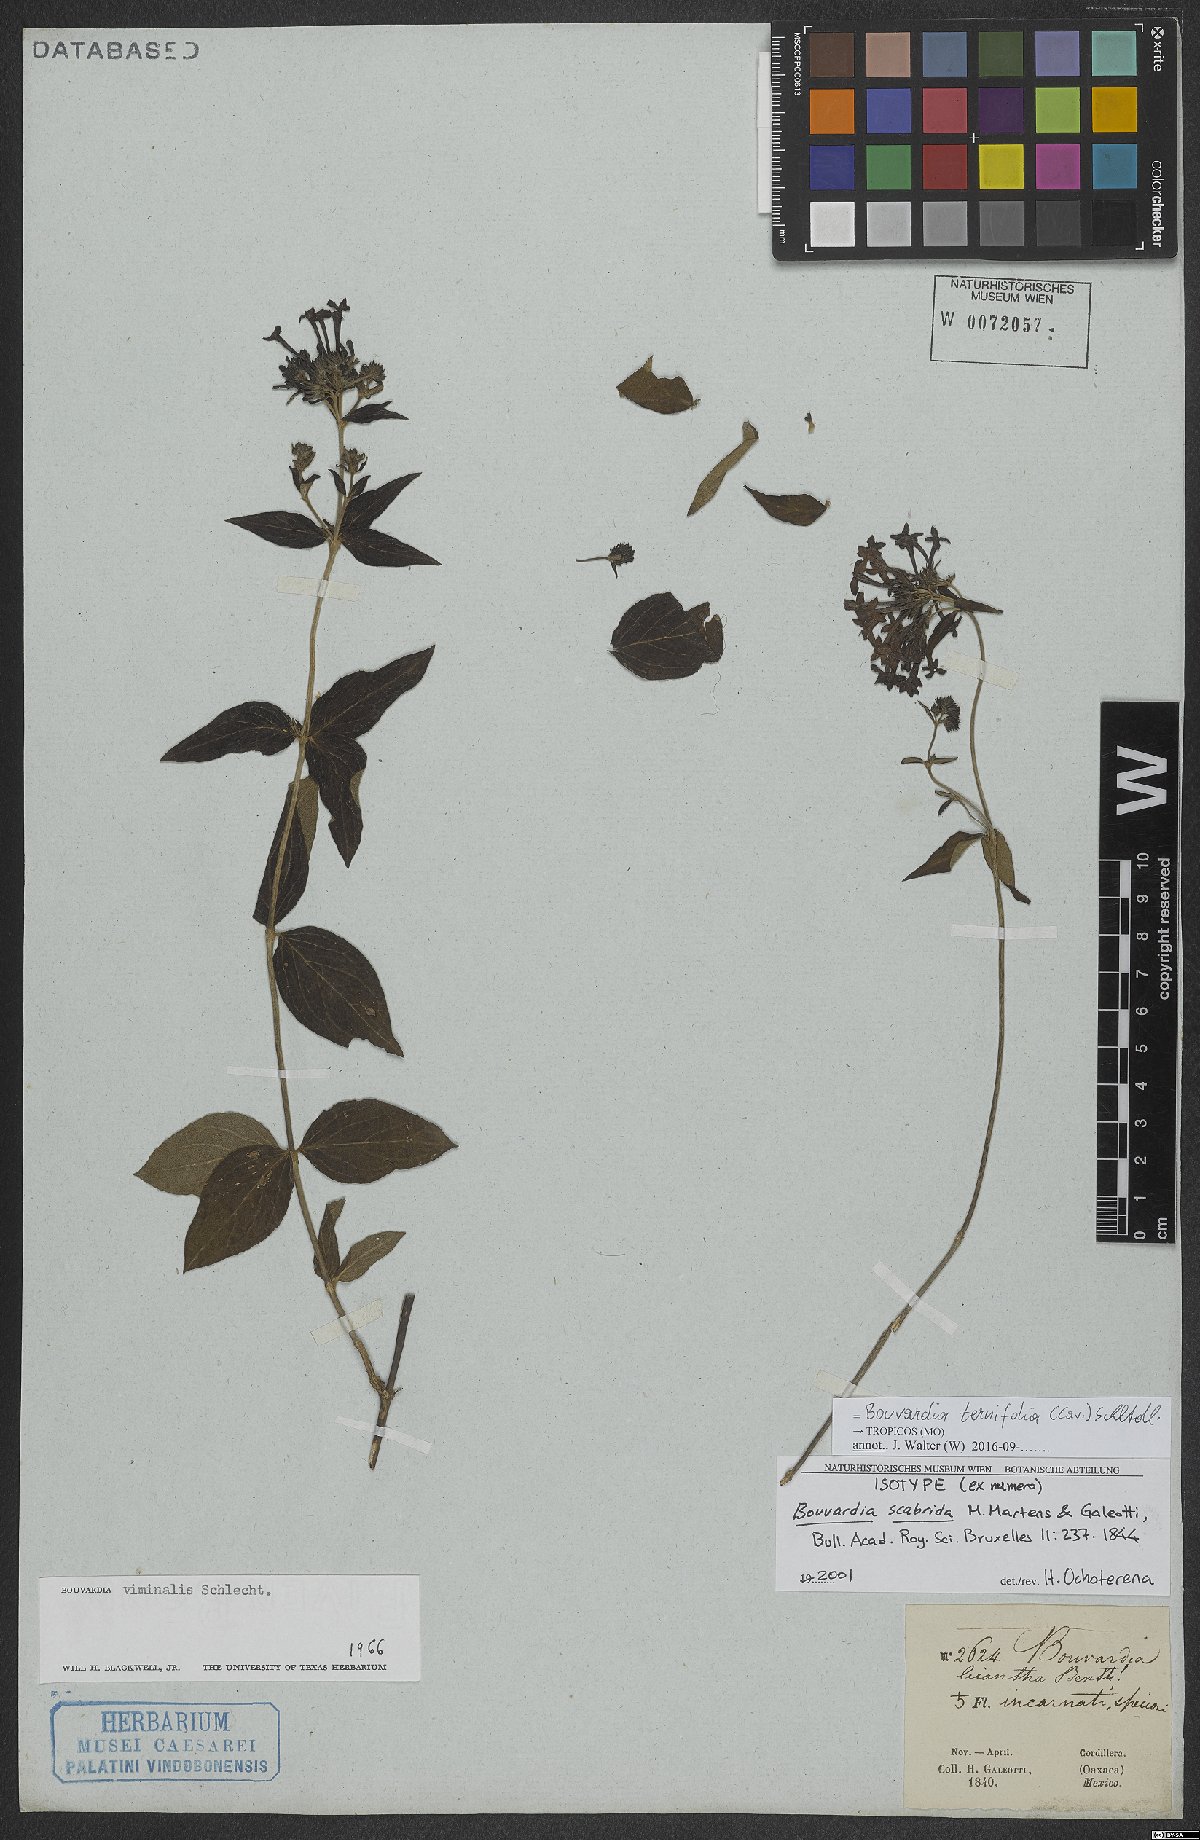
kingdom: Plantae
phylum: Tracheophyta
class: Magnoliopsida
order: Gentianales
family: Rubiaceae
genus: Bouvardia
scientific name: Bouvardia ternifolia
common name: Scarlet bouvardia
